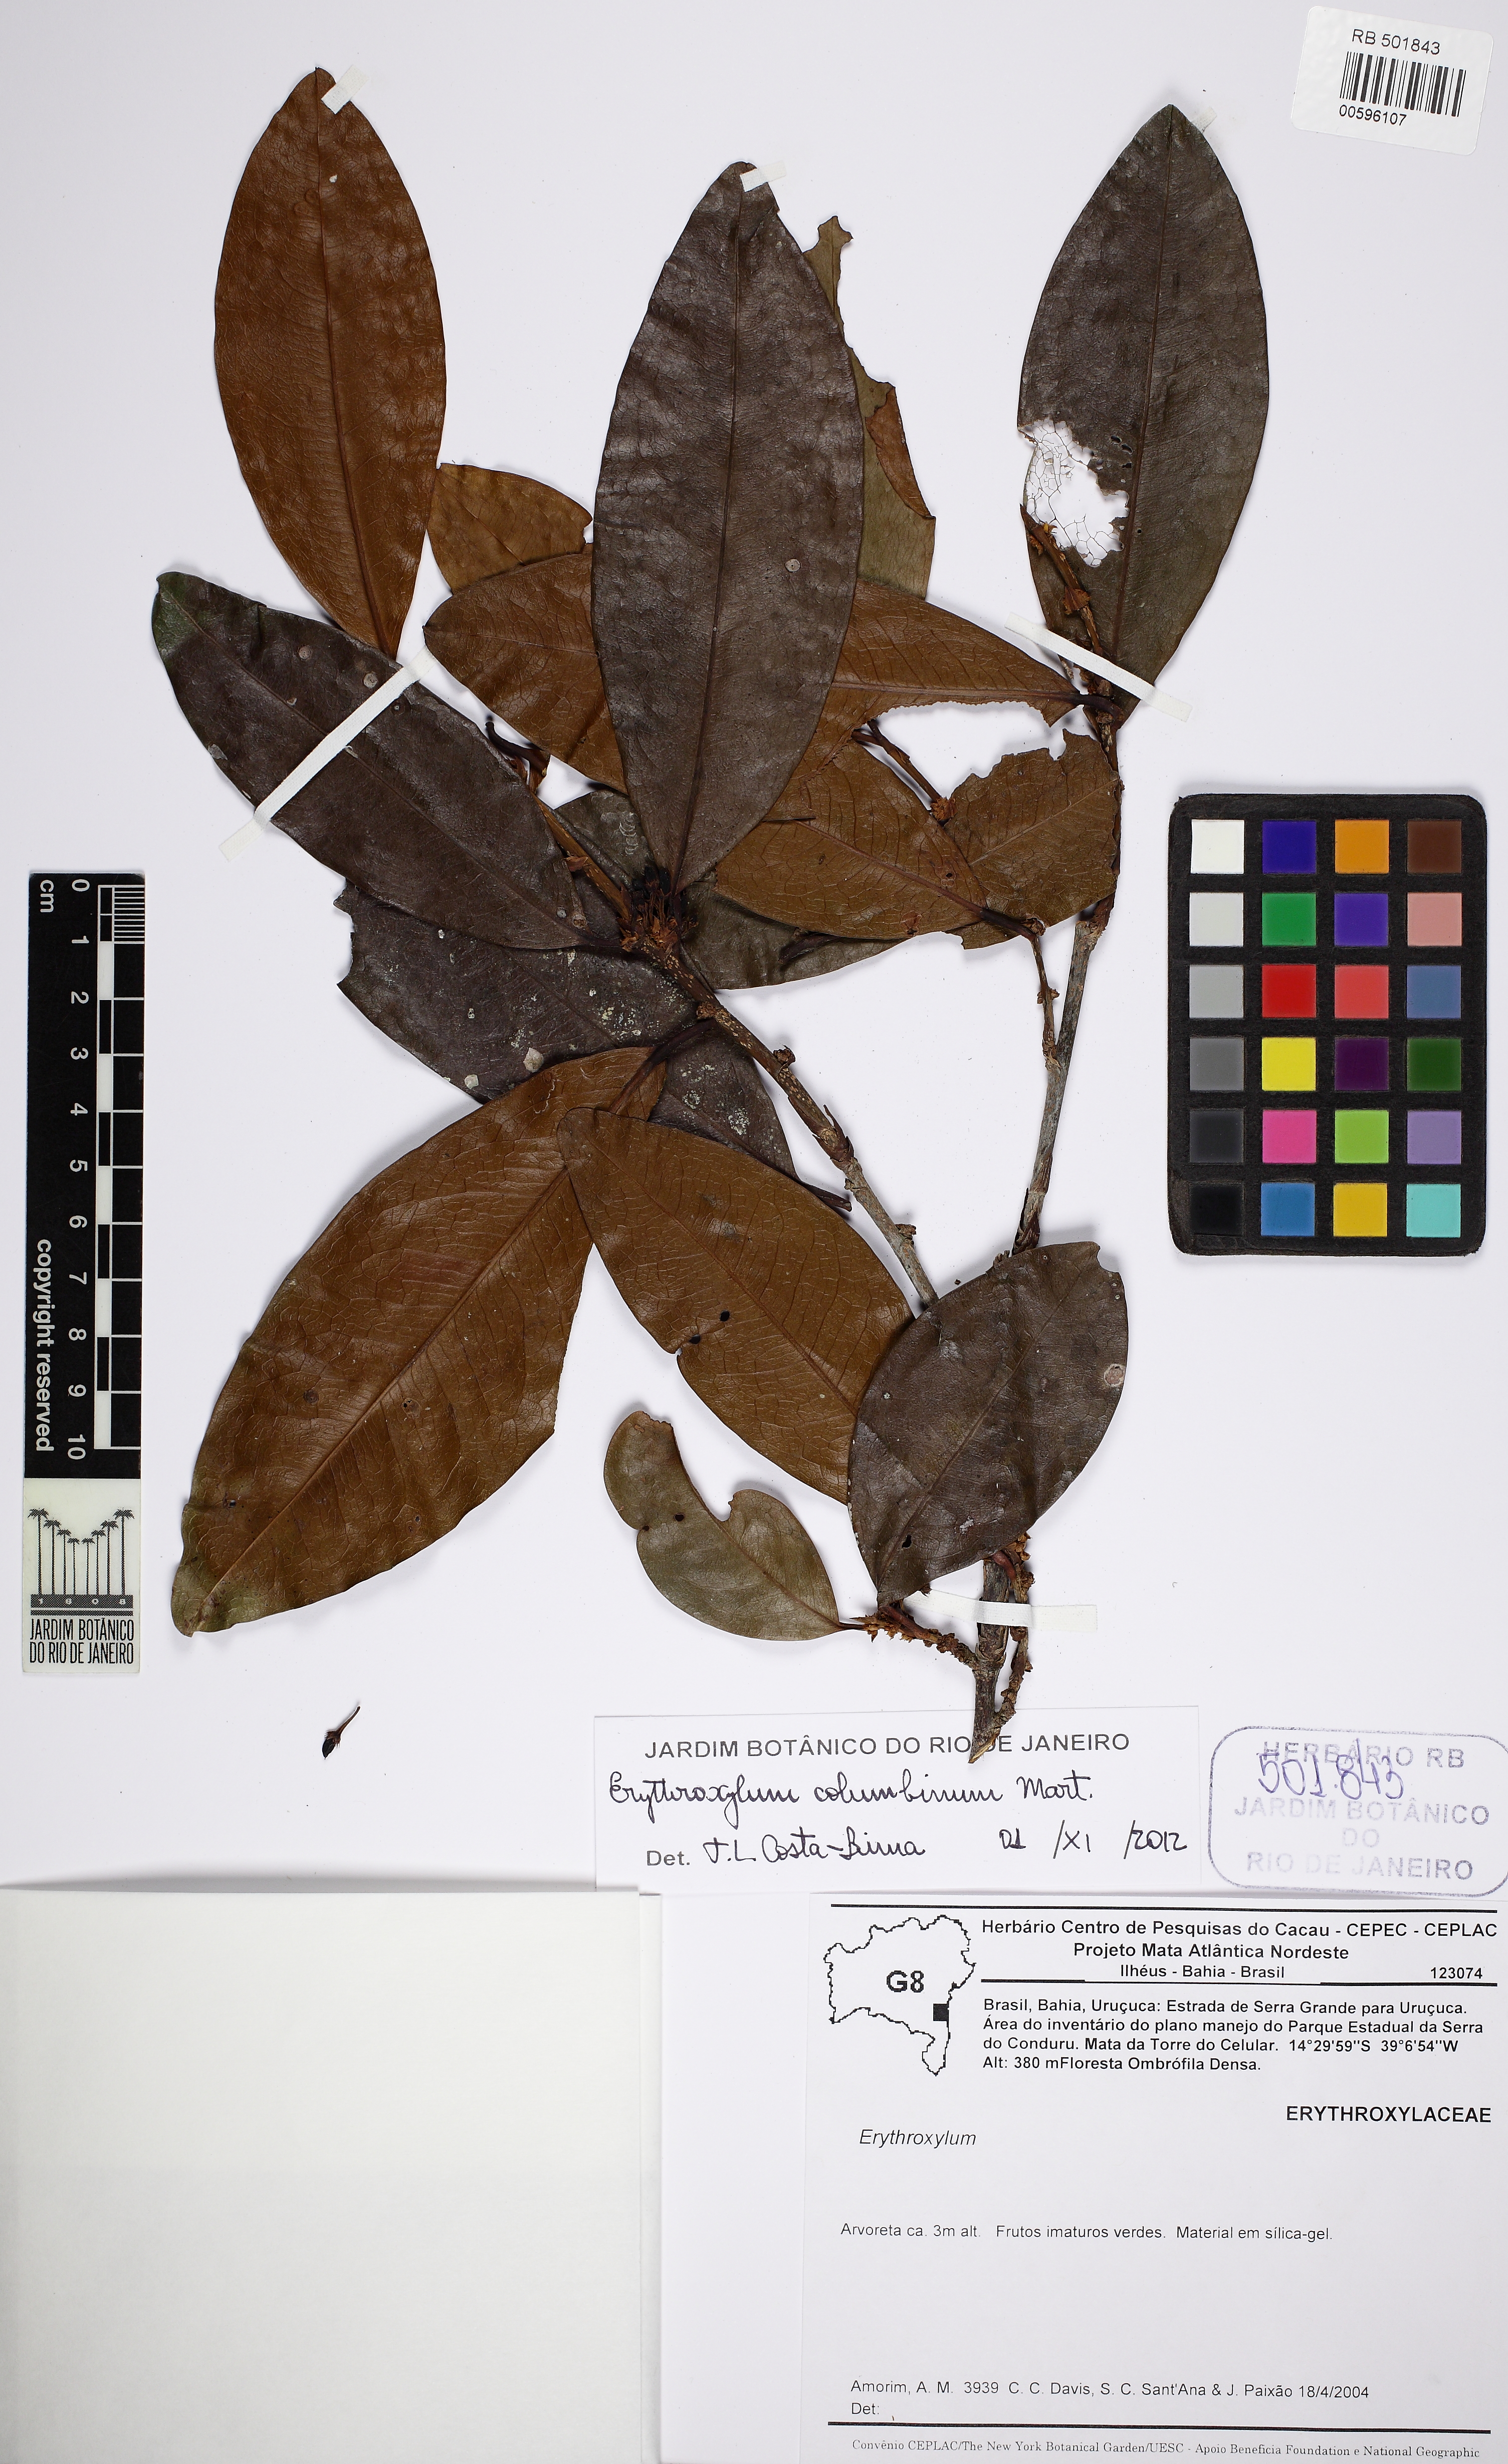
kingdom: Plantae
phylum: Tracheophyta
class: Magnoliopsida
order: Malpighiales
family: Erythroxylaceae
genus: Erythroxylum
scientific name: Erythroxylum columbinum
